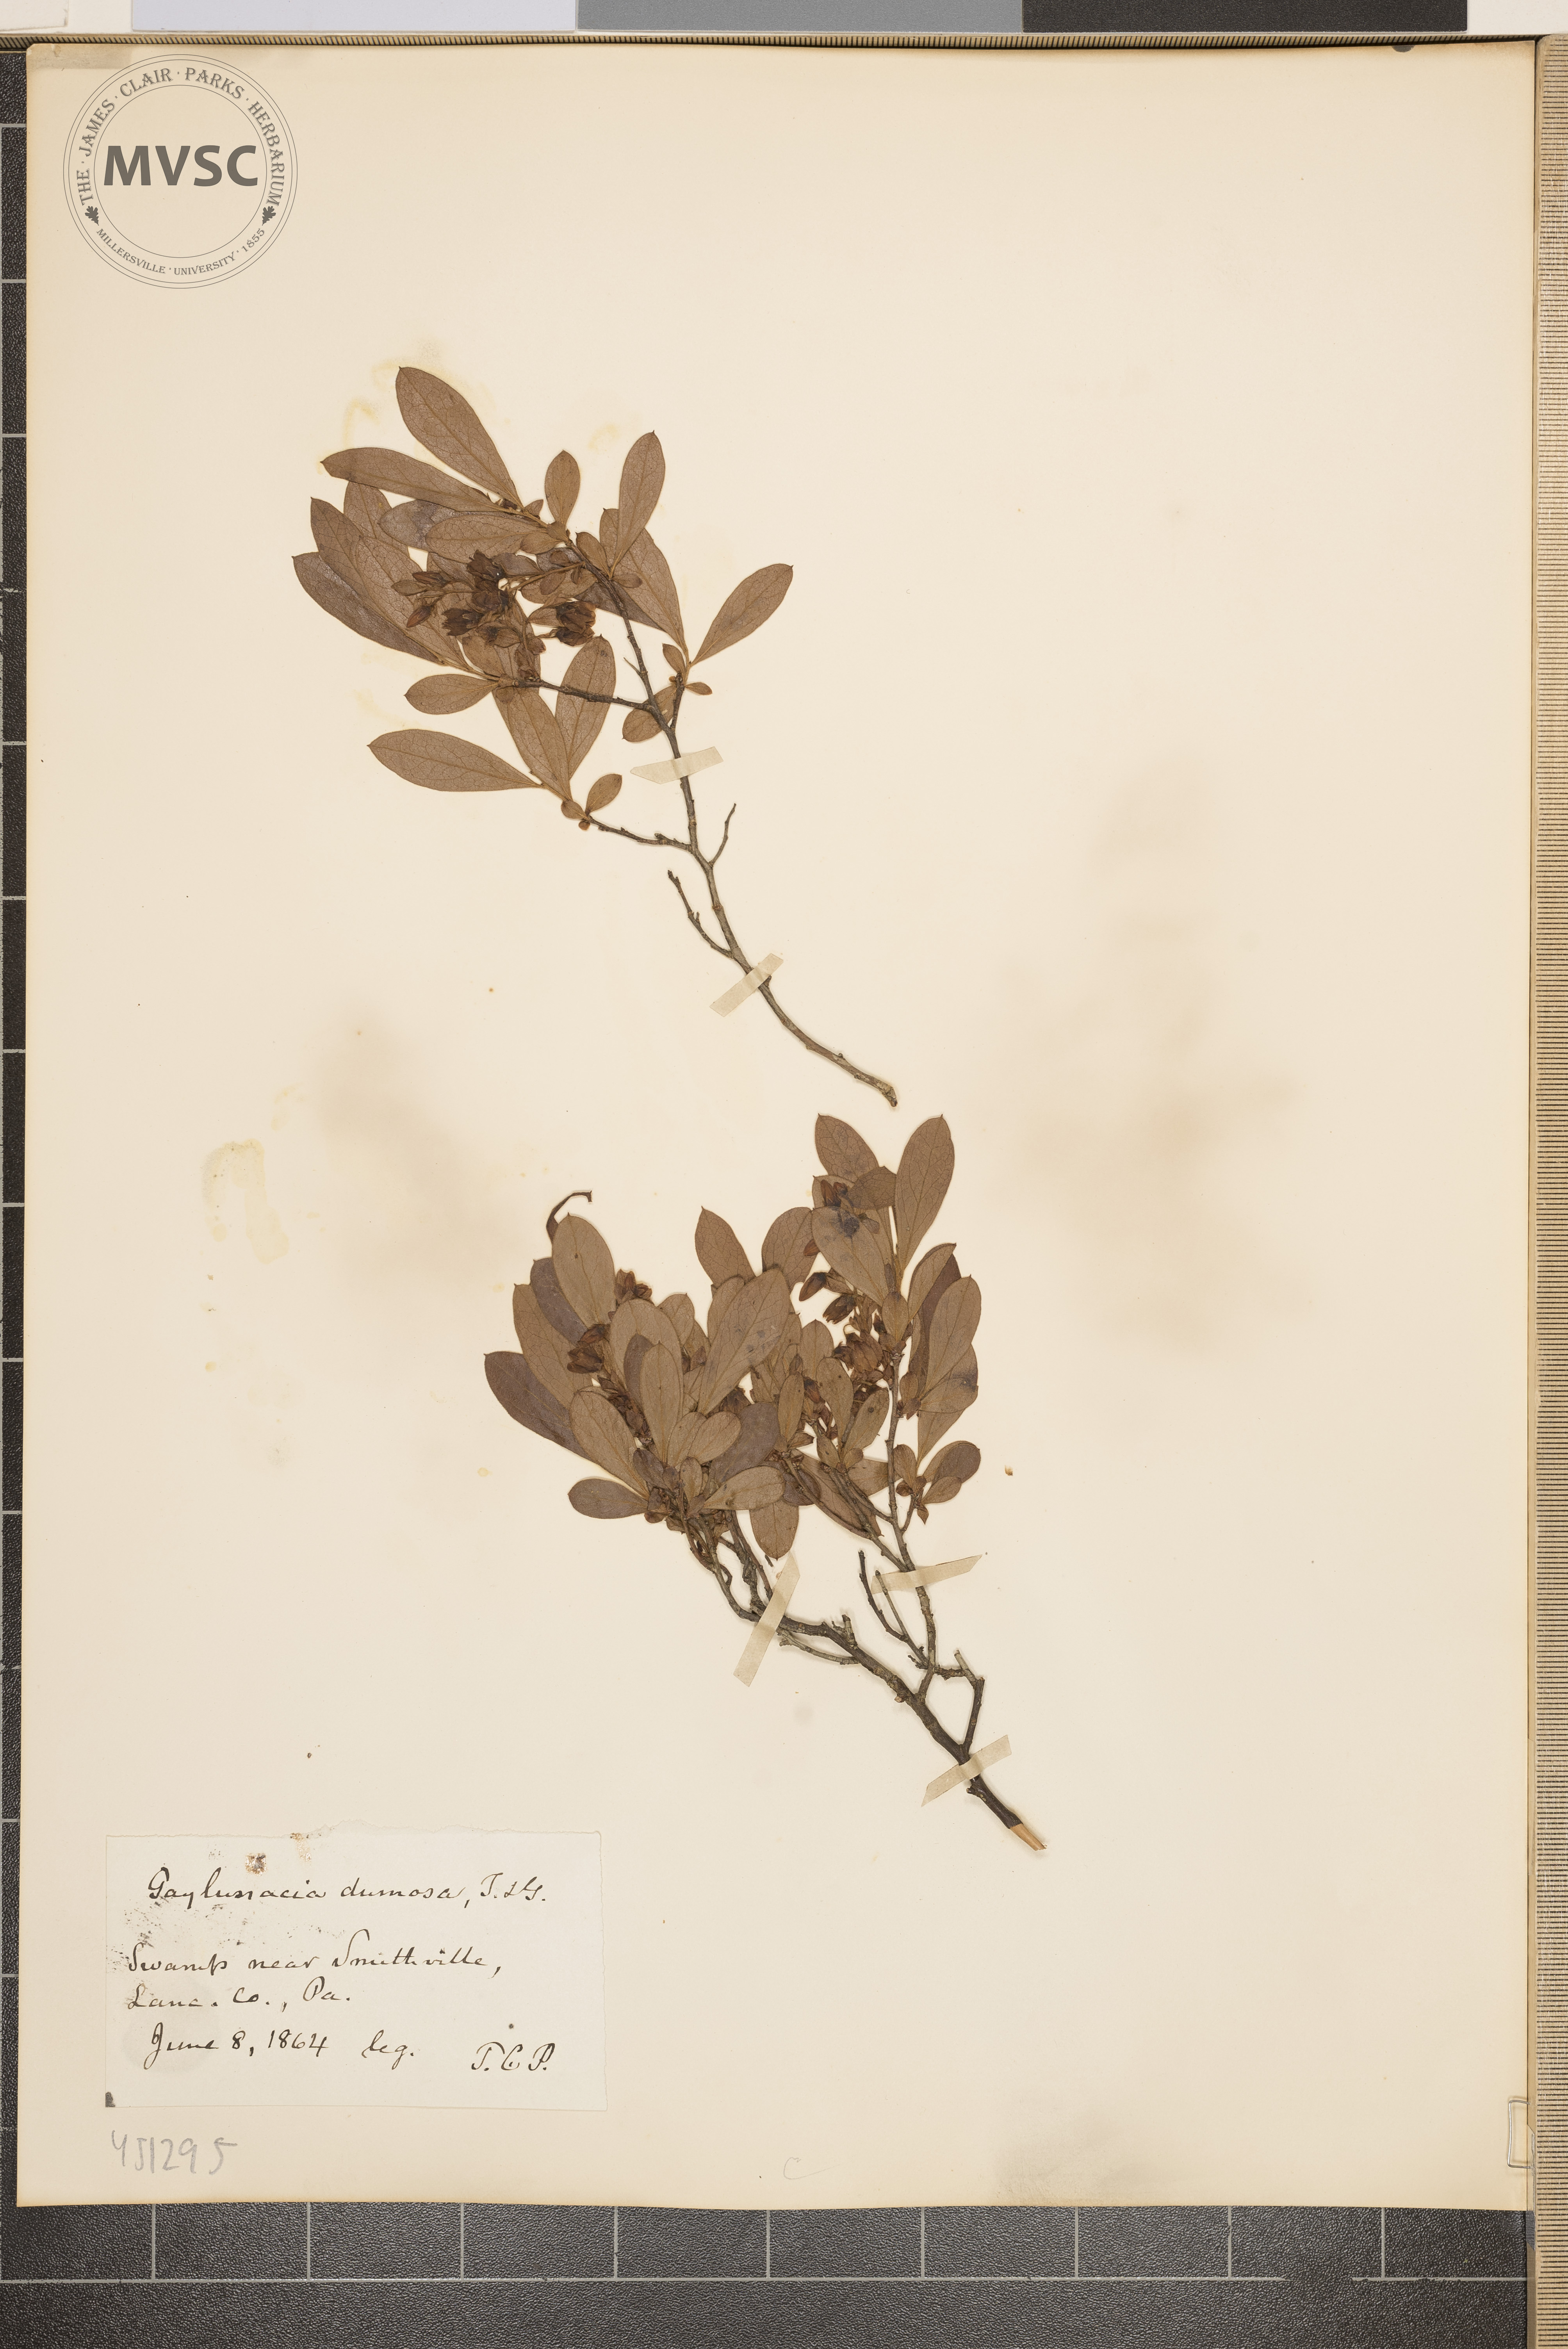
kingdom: Plantae
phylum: Tracheophyta
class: Magnoliopsida
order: Ericales
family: Ericaceae
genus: Gaylussacia
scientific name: Gaylussacia dumosa
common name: Dwarf huckleberry
